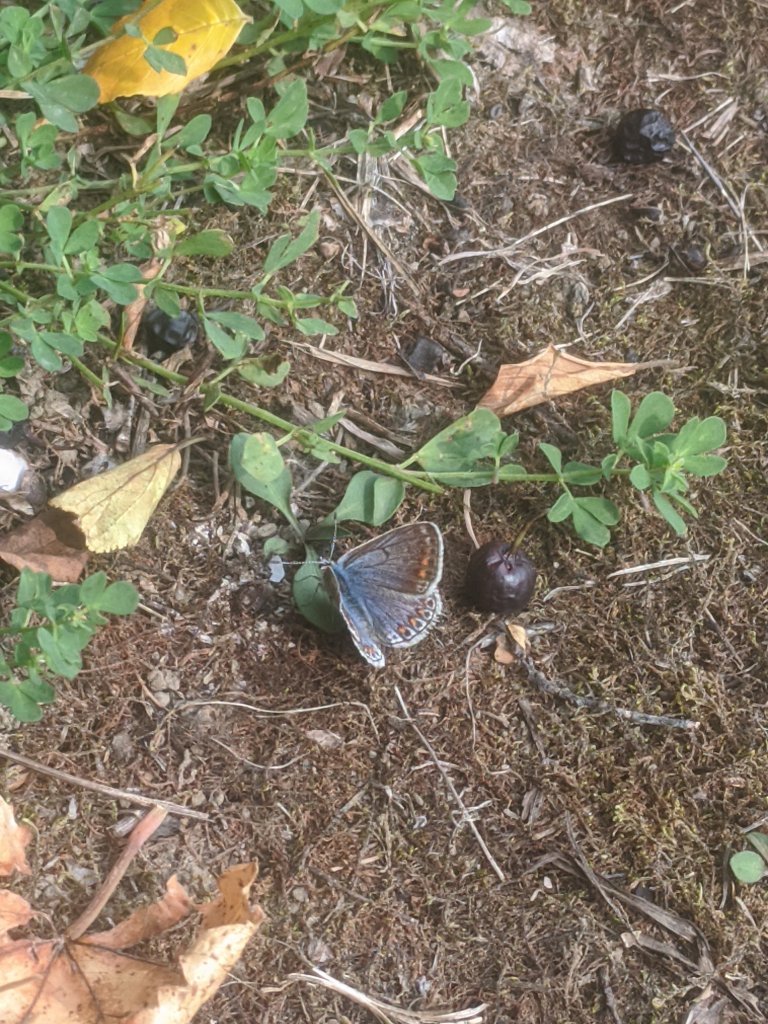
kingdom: Animalia
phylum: Arthropoda
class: Insecta
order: Lepidoptera
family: Lycaenidae
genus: Polyommatus
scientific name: Polyommatus icarus
